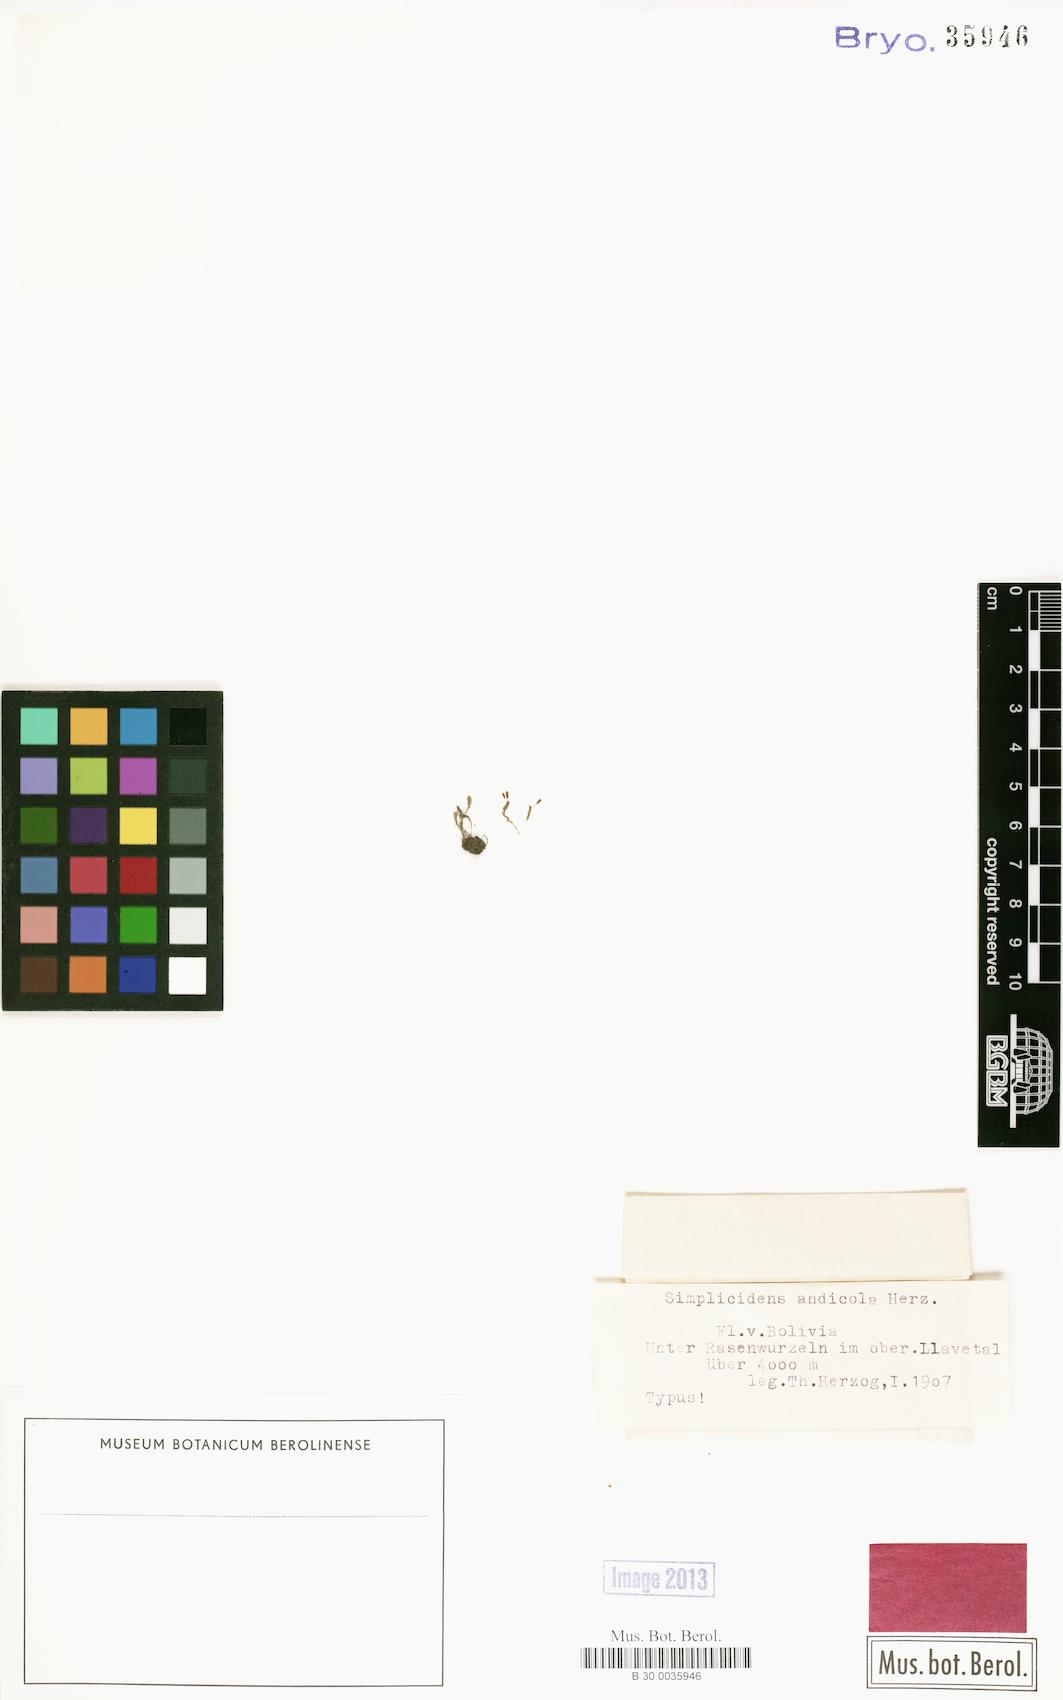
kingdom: Plantae
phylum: Bryophyta
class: Bryopsida
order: Dicranales
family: Fissidentaceae
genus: Fissidens
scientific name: Fissidens andicola
